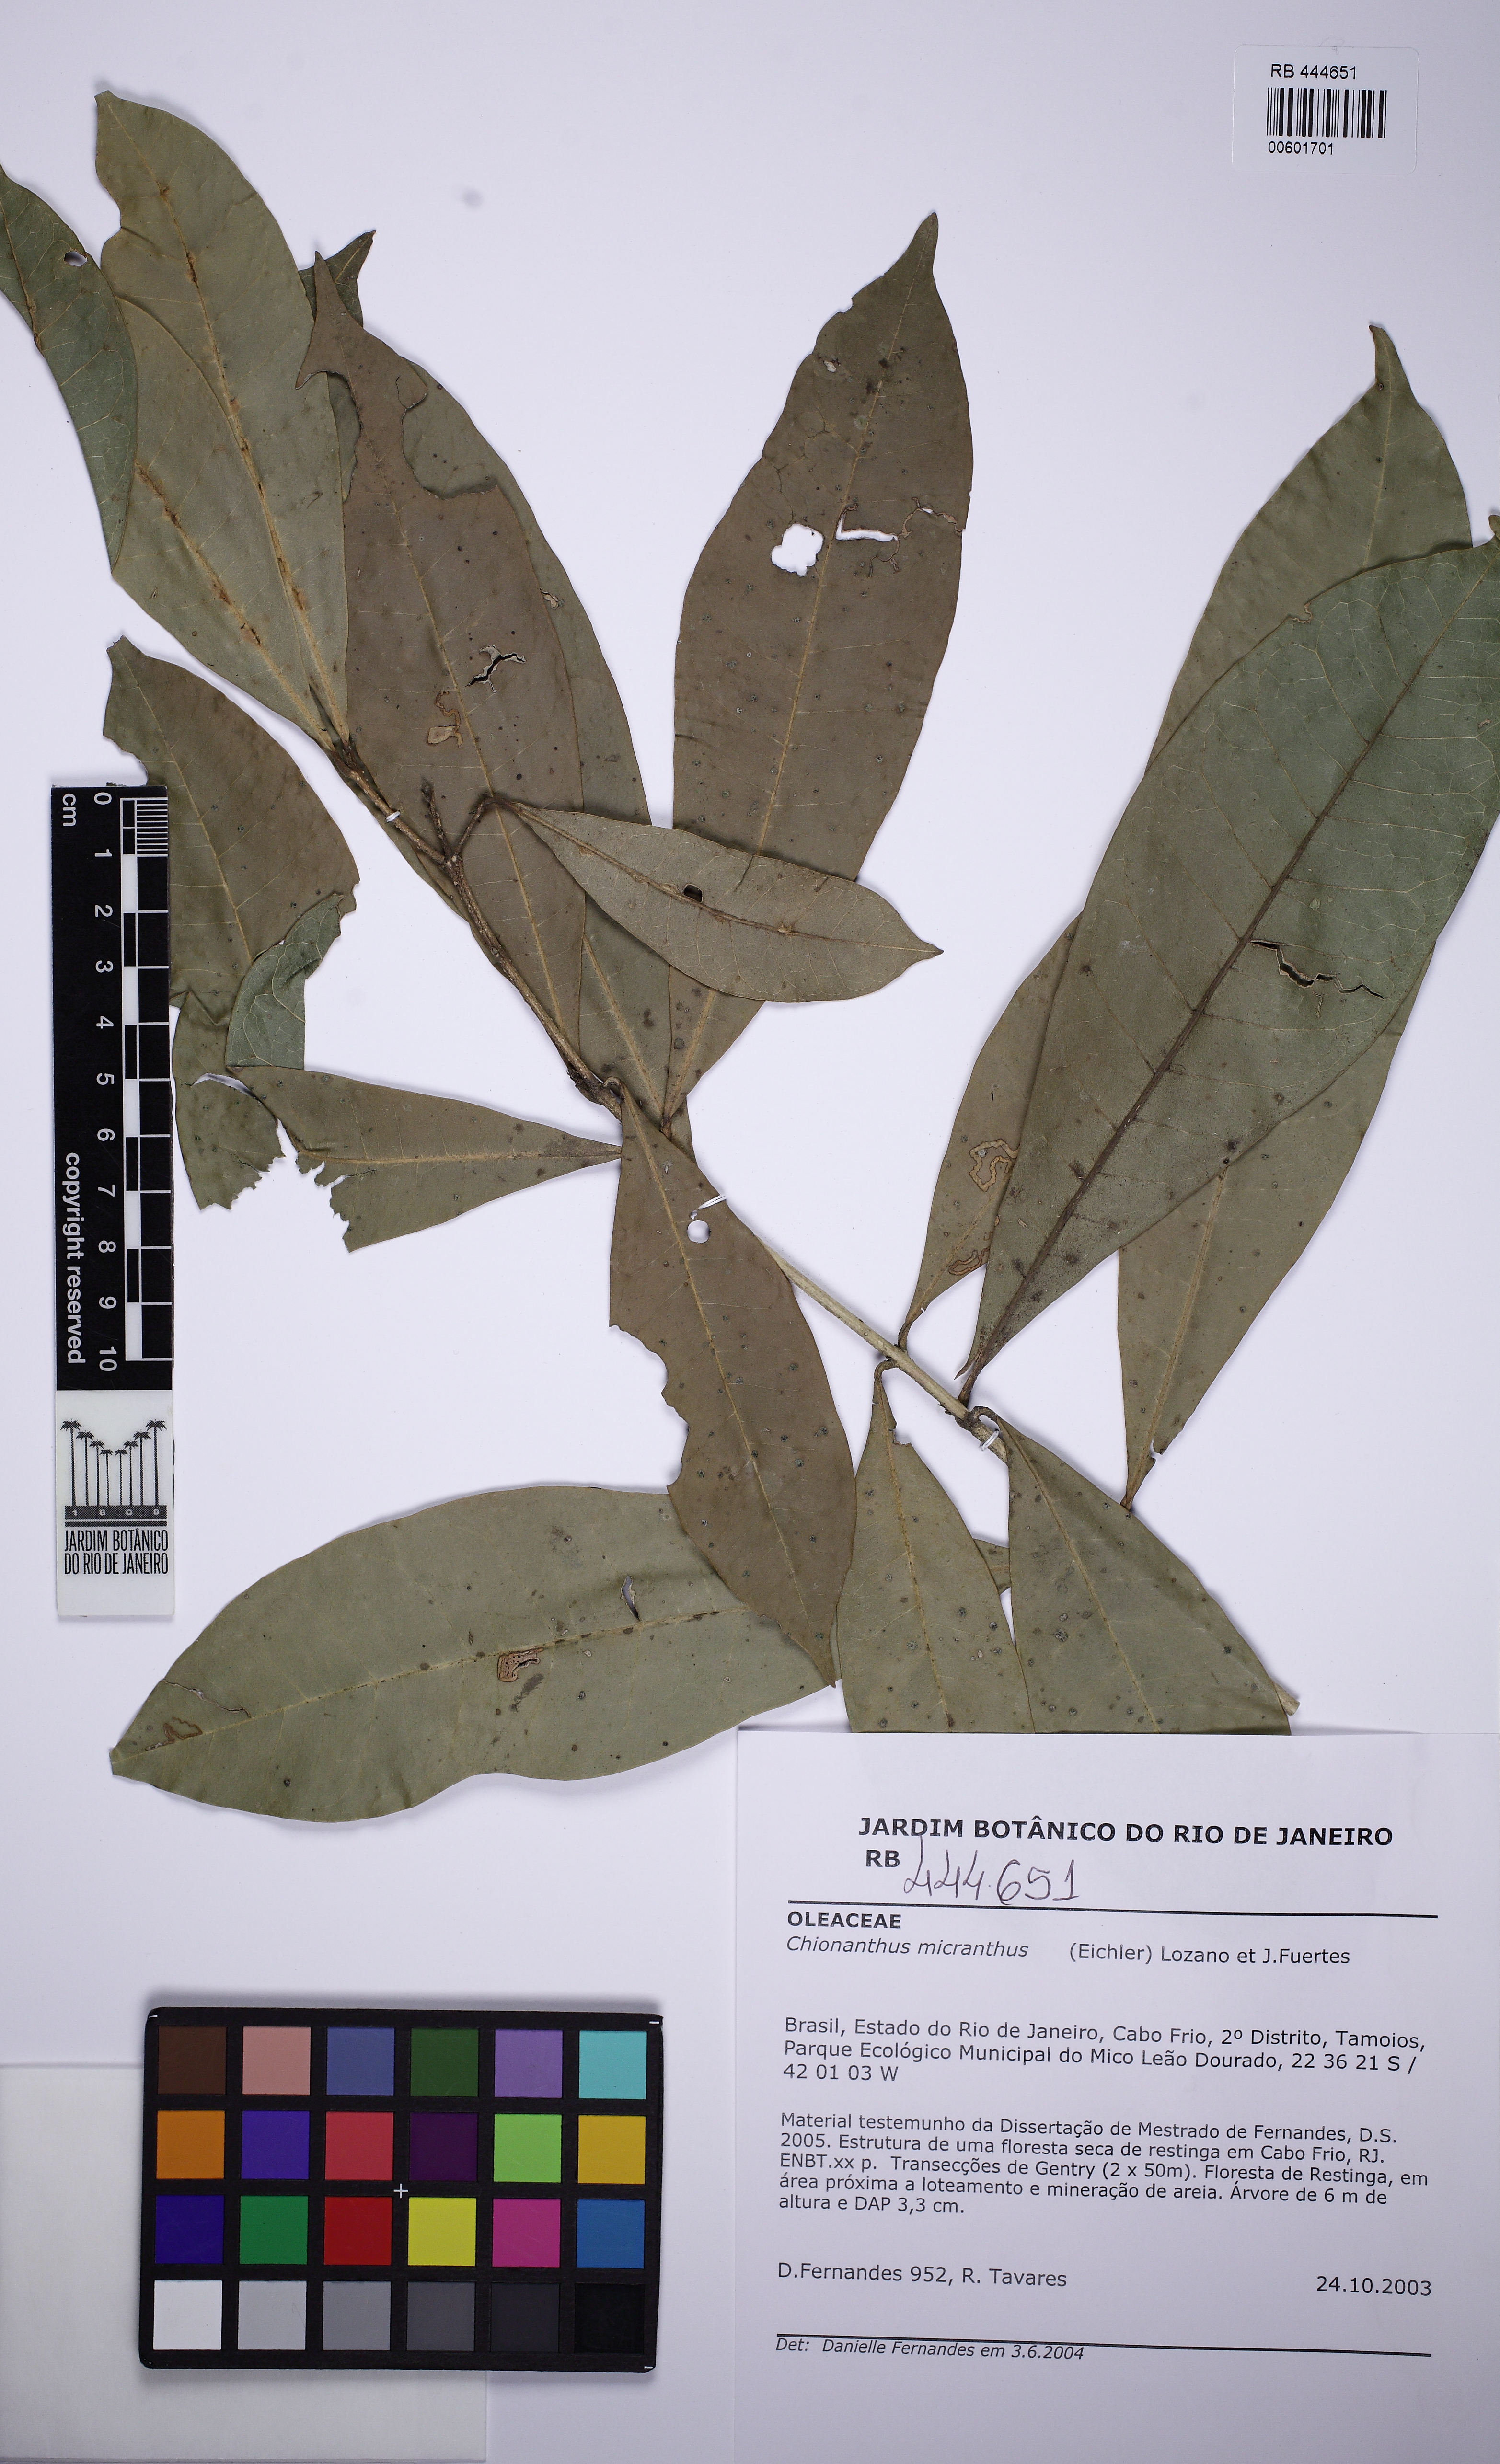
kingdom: Plantae
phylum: Tracheophyta
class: Magnoliopsida
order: Lamiales
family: Oleaceae
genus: Chionanthus
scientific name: Chionanthus micranthus
